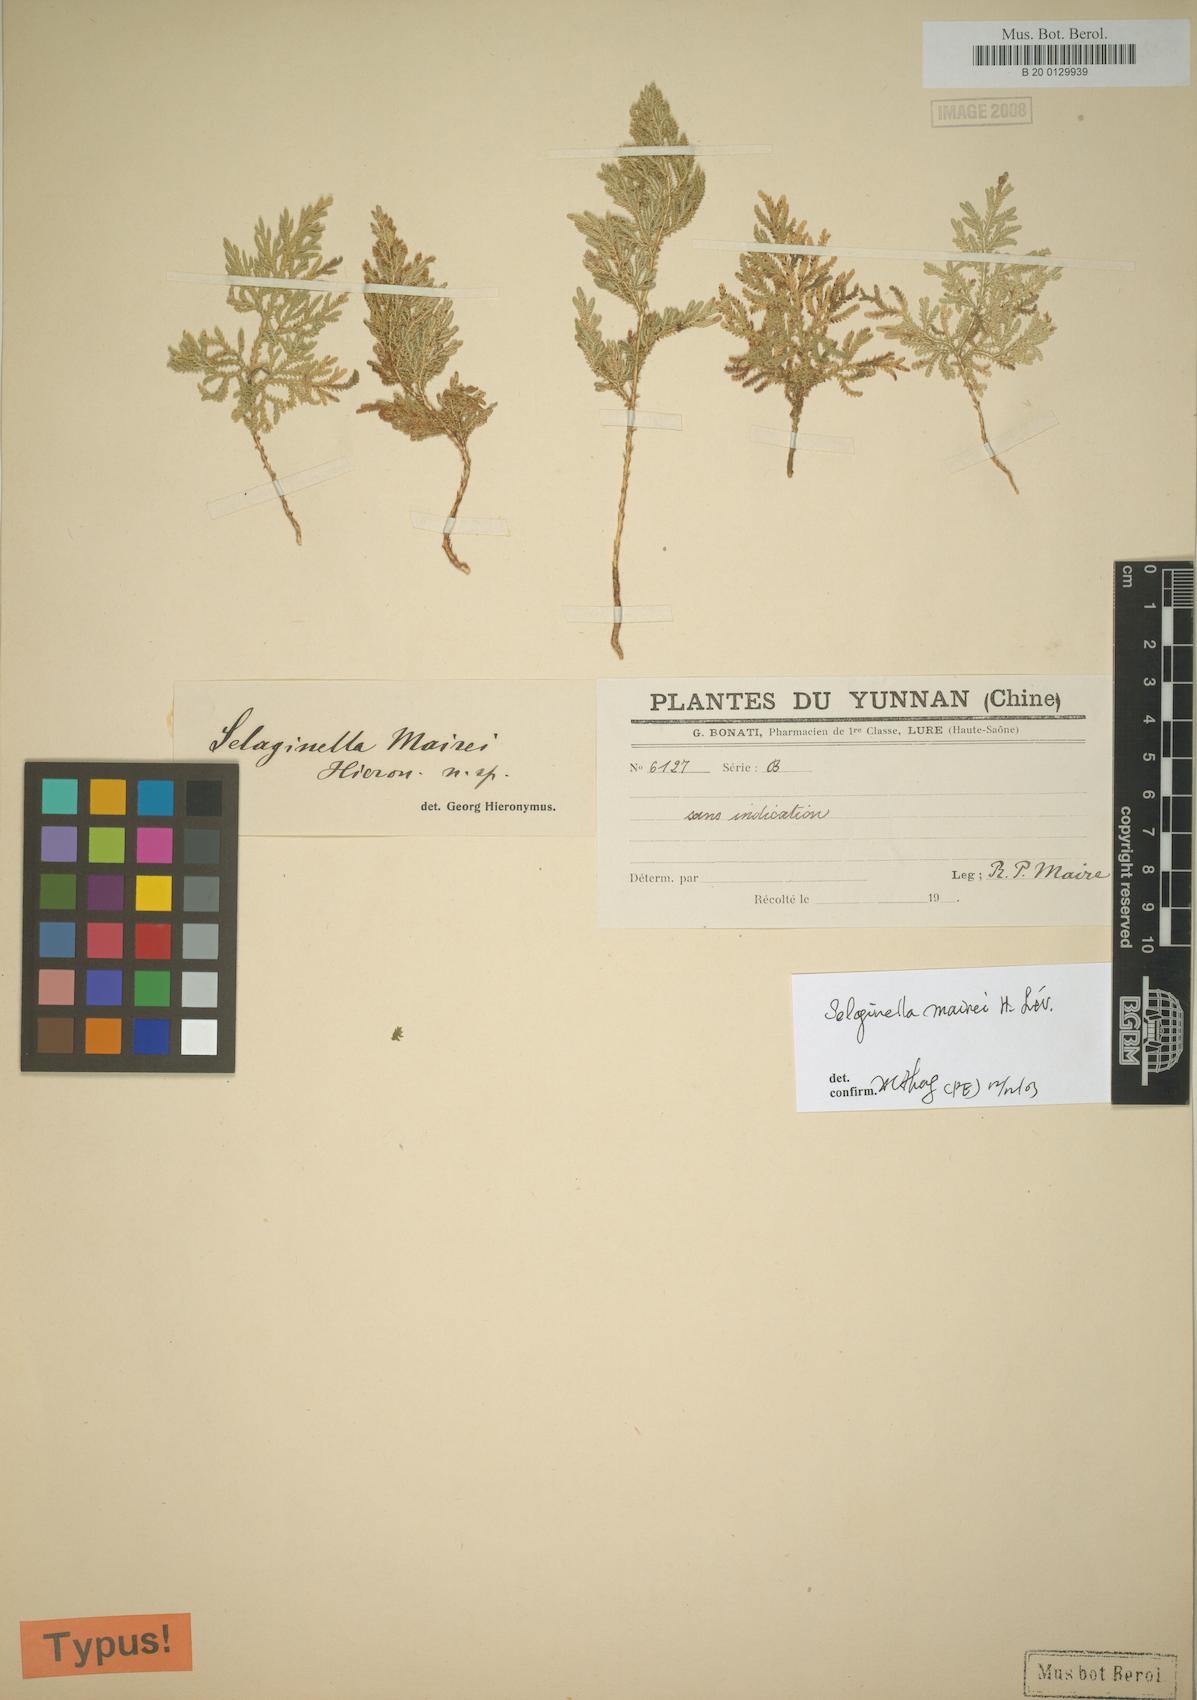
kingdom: Plantae
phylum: Tracheophyta
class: Lycopodiopsida
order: Selaginellales
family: Selaginellaceae
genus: Selaginella
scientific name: Selaginella mairei
